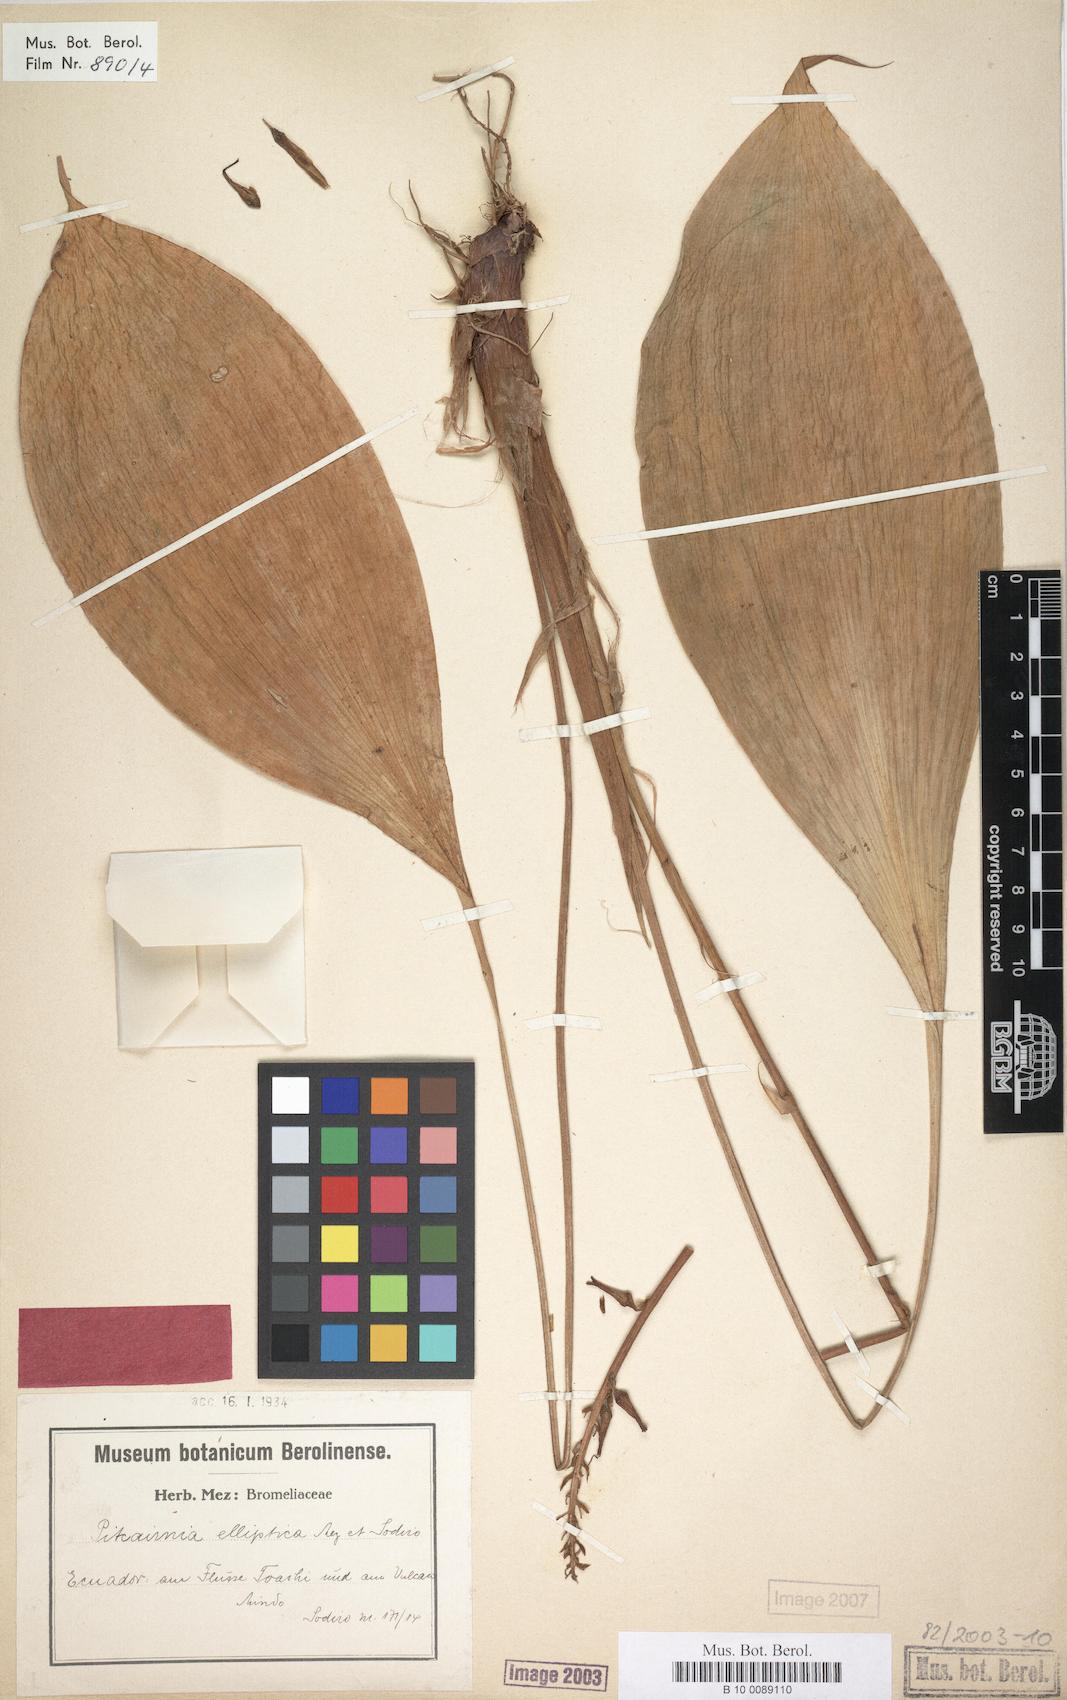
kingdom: Plantae
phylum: Tracheophyta
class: Liliopsida
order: Poales
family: Bromeliaceae
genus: Pitcairnia
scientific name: Pitcairnia elliptica
